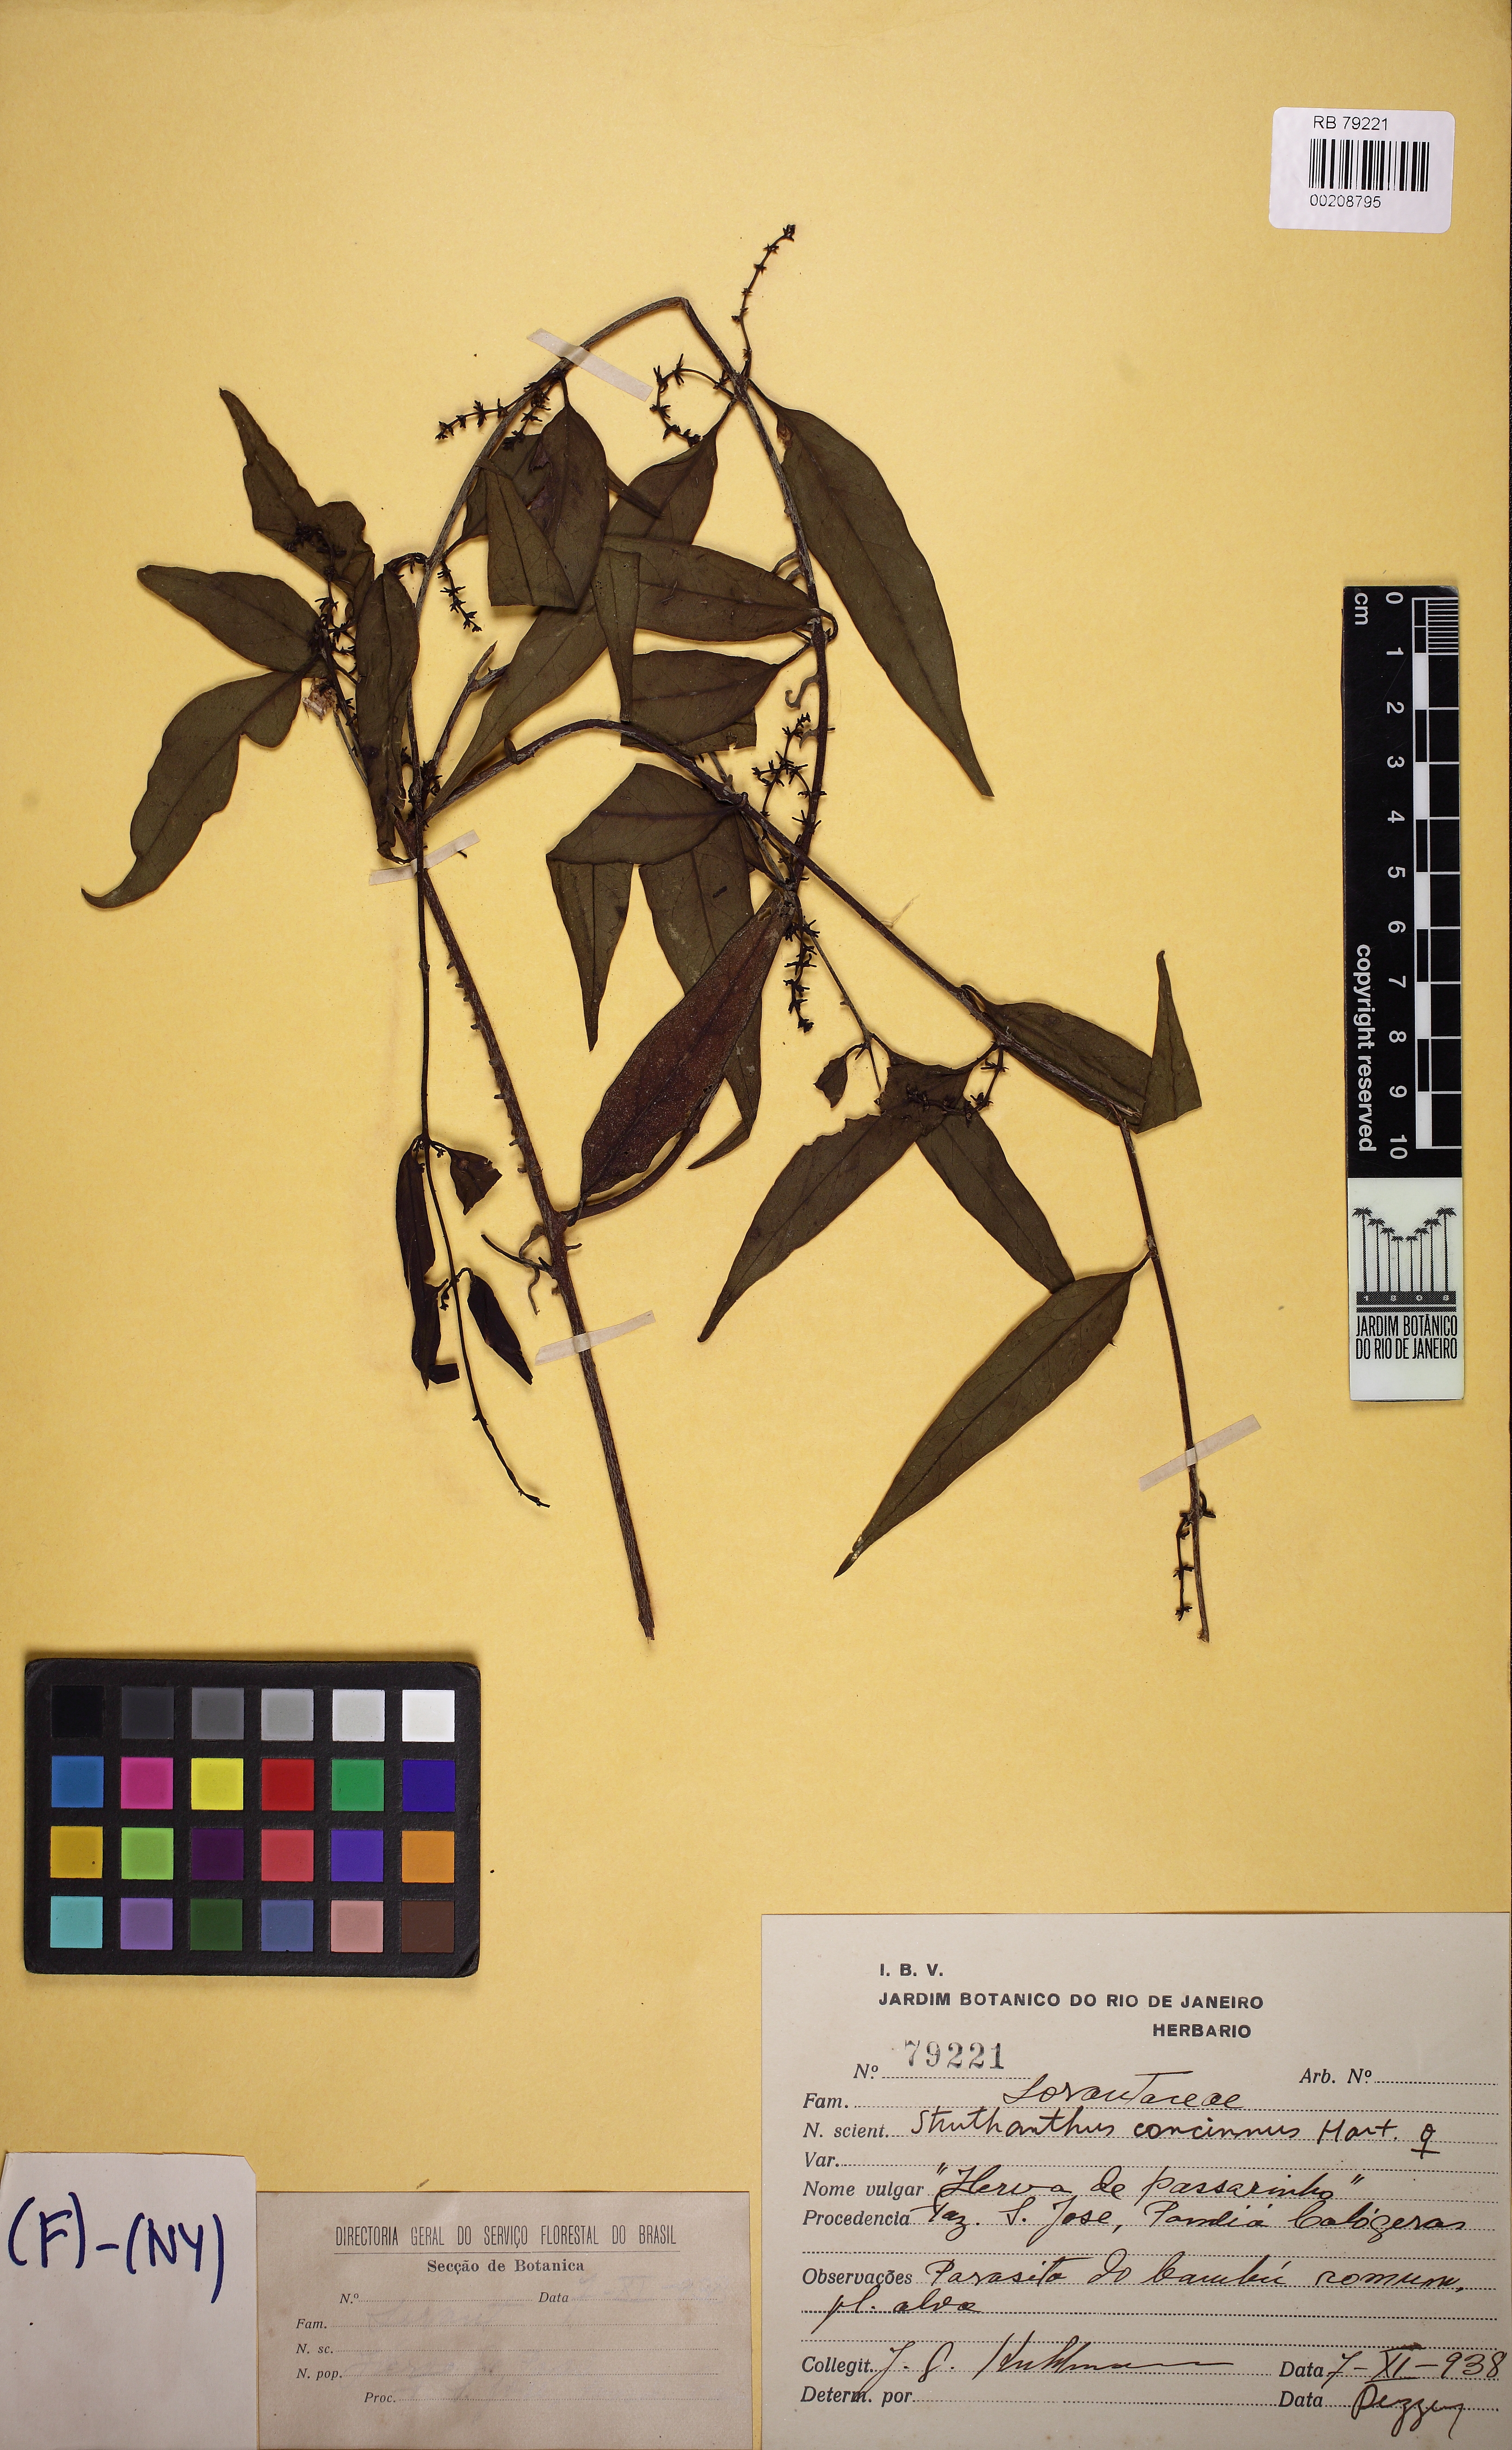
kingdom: Plantae
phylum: Tracheophyta
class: Magnoliopsida
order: Santalales
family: Loranthaceae
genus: Struthanthus
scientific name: Struthanthus concinnus
